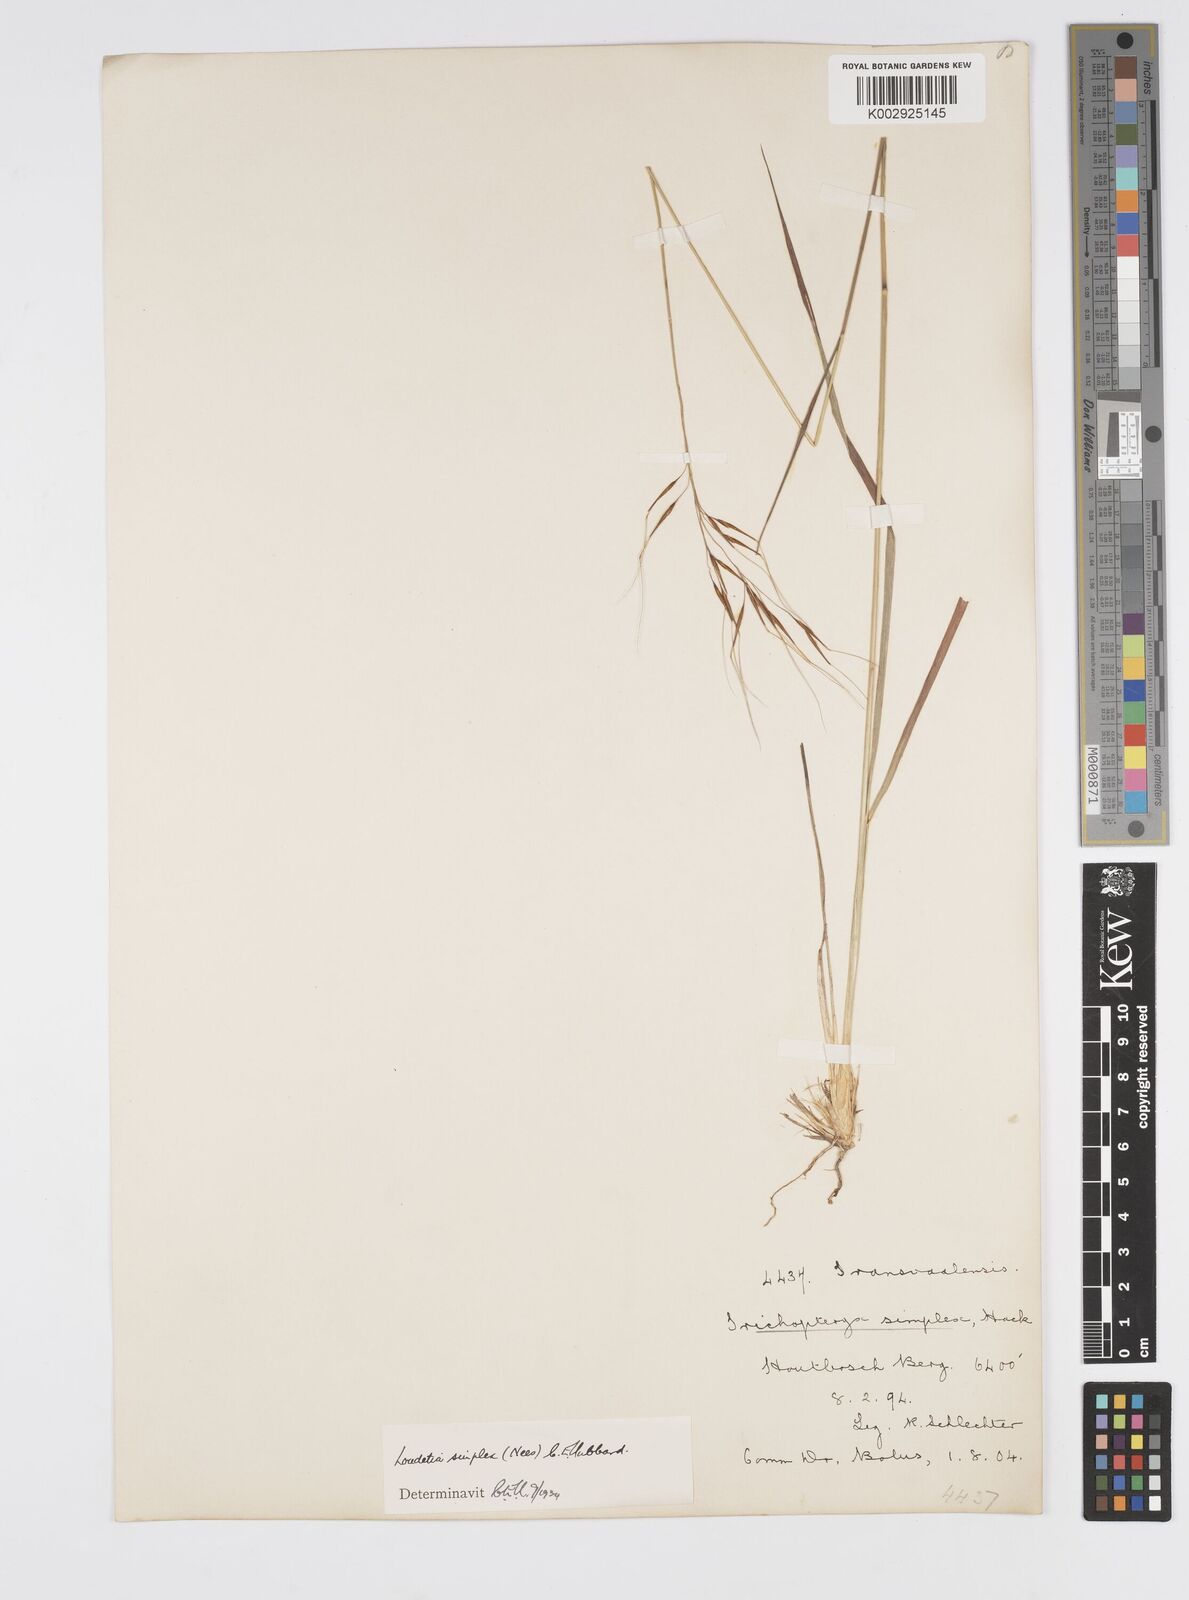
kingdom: Plantae
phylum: Tracheophyta
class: Liliopsida
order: Poales
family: Poaceae
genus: Loudetia
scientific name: Loudetia simplex
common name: Common russet grass
